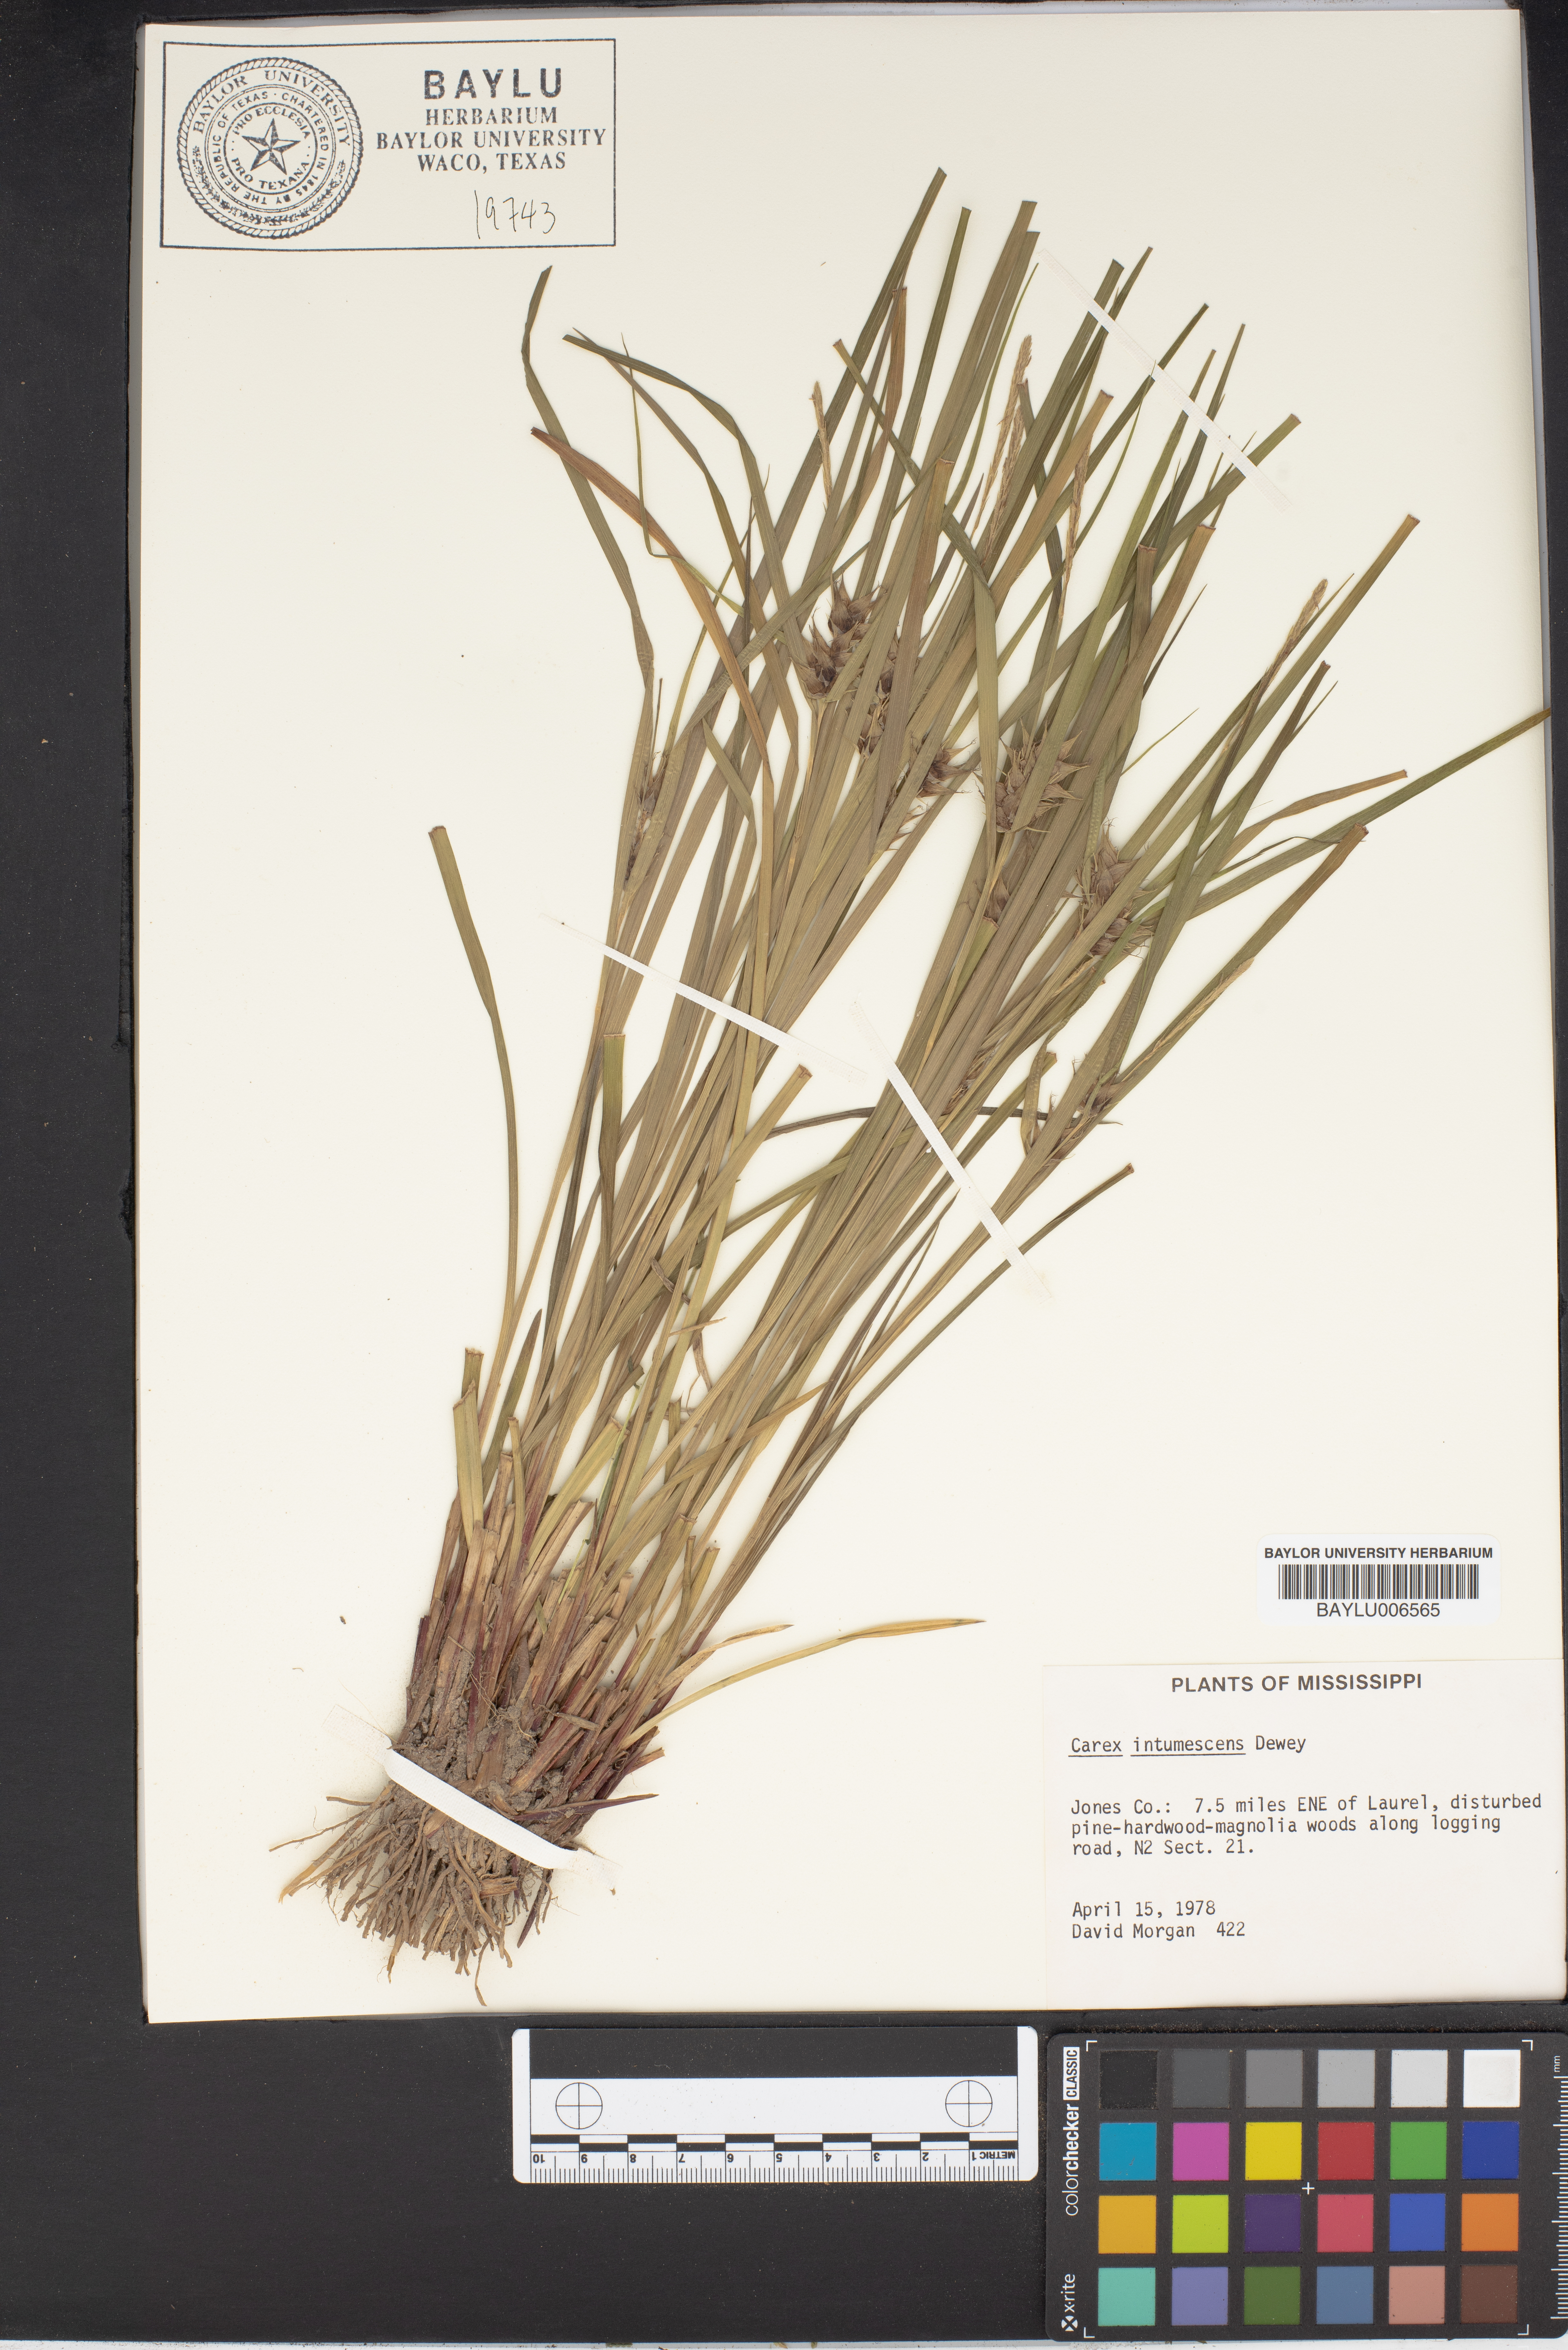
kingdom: Plantae
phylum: Tracheophyta
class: Liliopsida
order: Poales
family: Cyperaceae
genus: Carex
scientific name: Carex intumescens
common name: Greater bladder sedge
